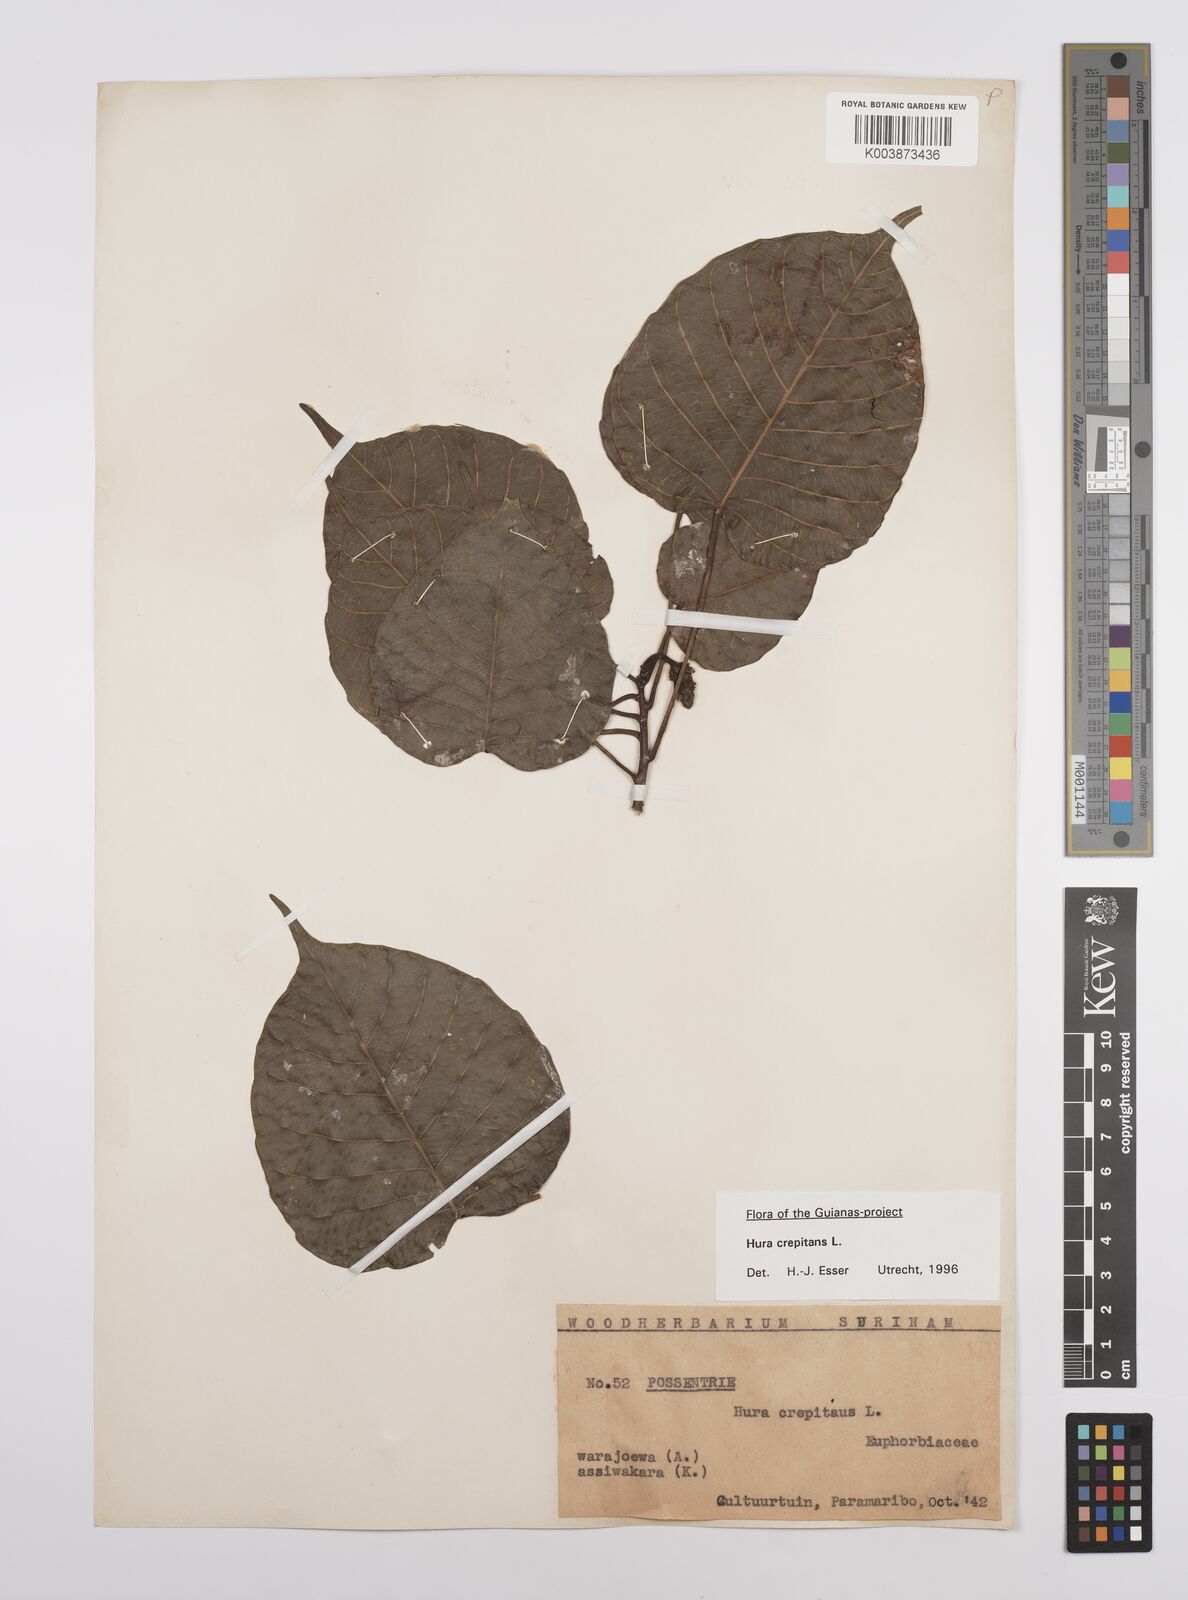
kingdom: Plantae
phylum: Tracheophyta
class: Magnoliopsida
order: Malpighiales
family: Euphorbiaceae
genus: Hura
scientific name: Hura crepitans
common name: Sandboxtree
